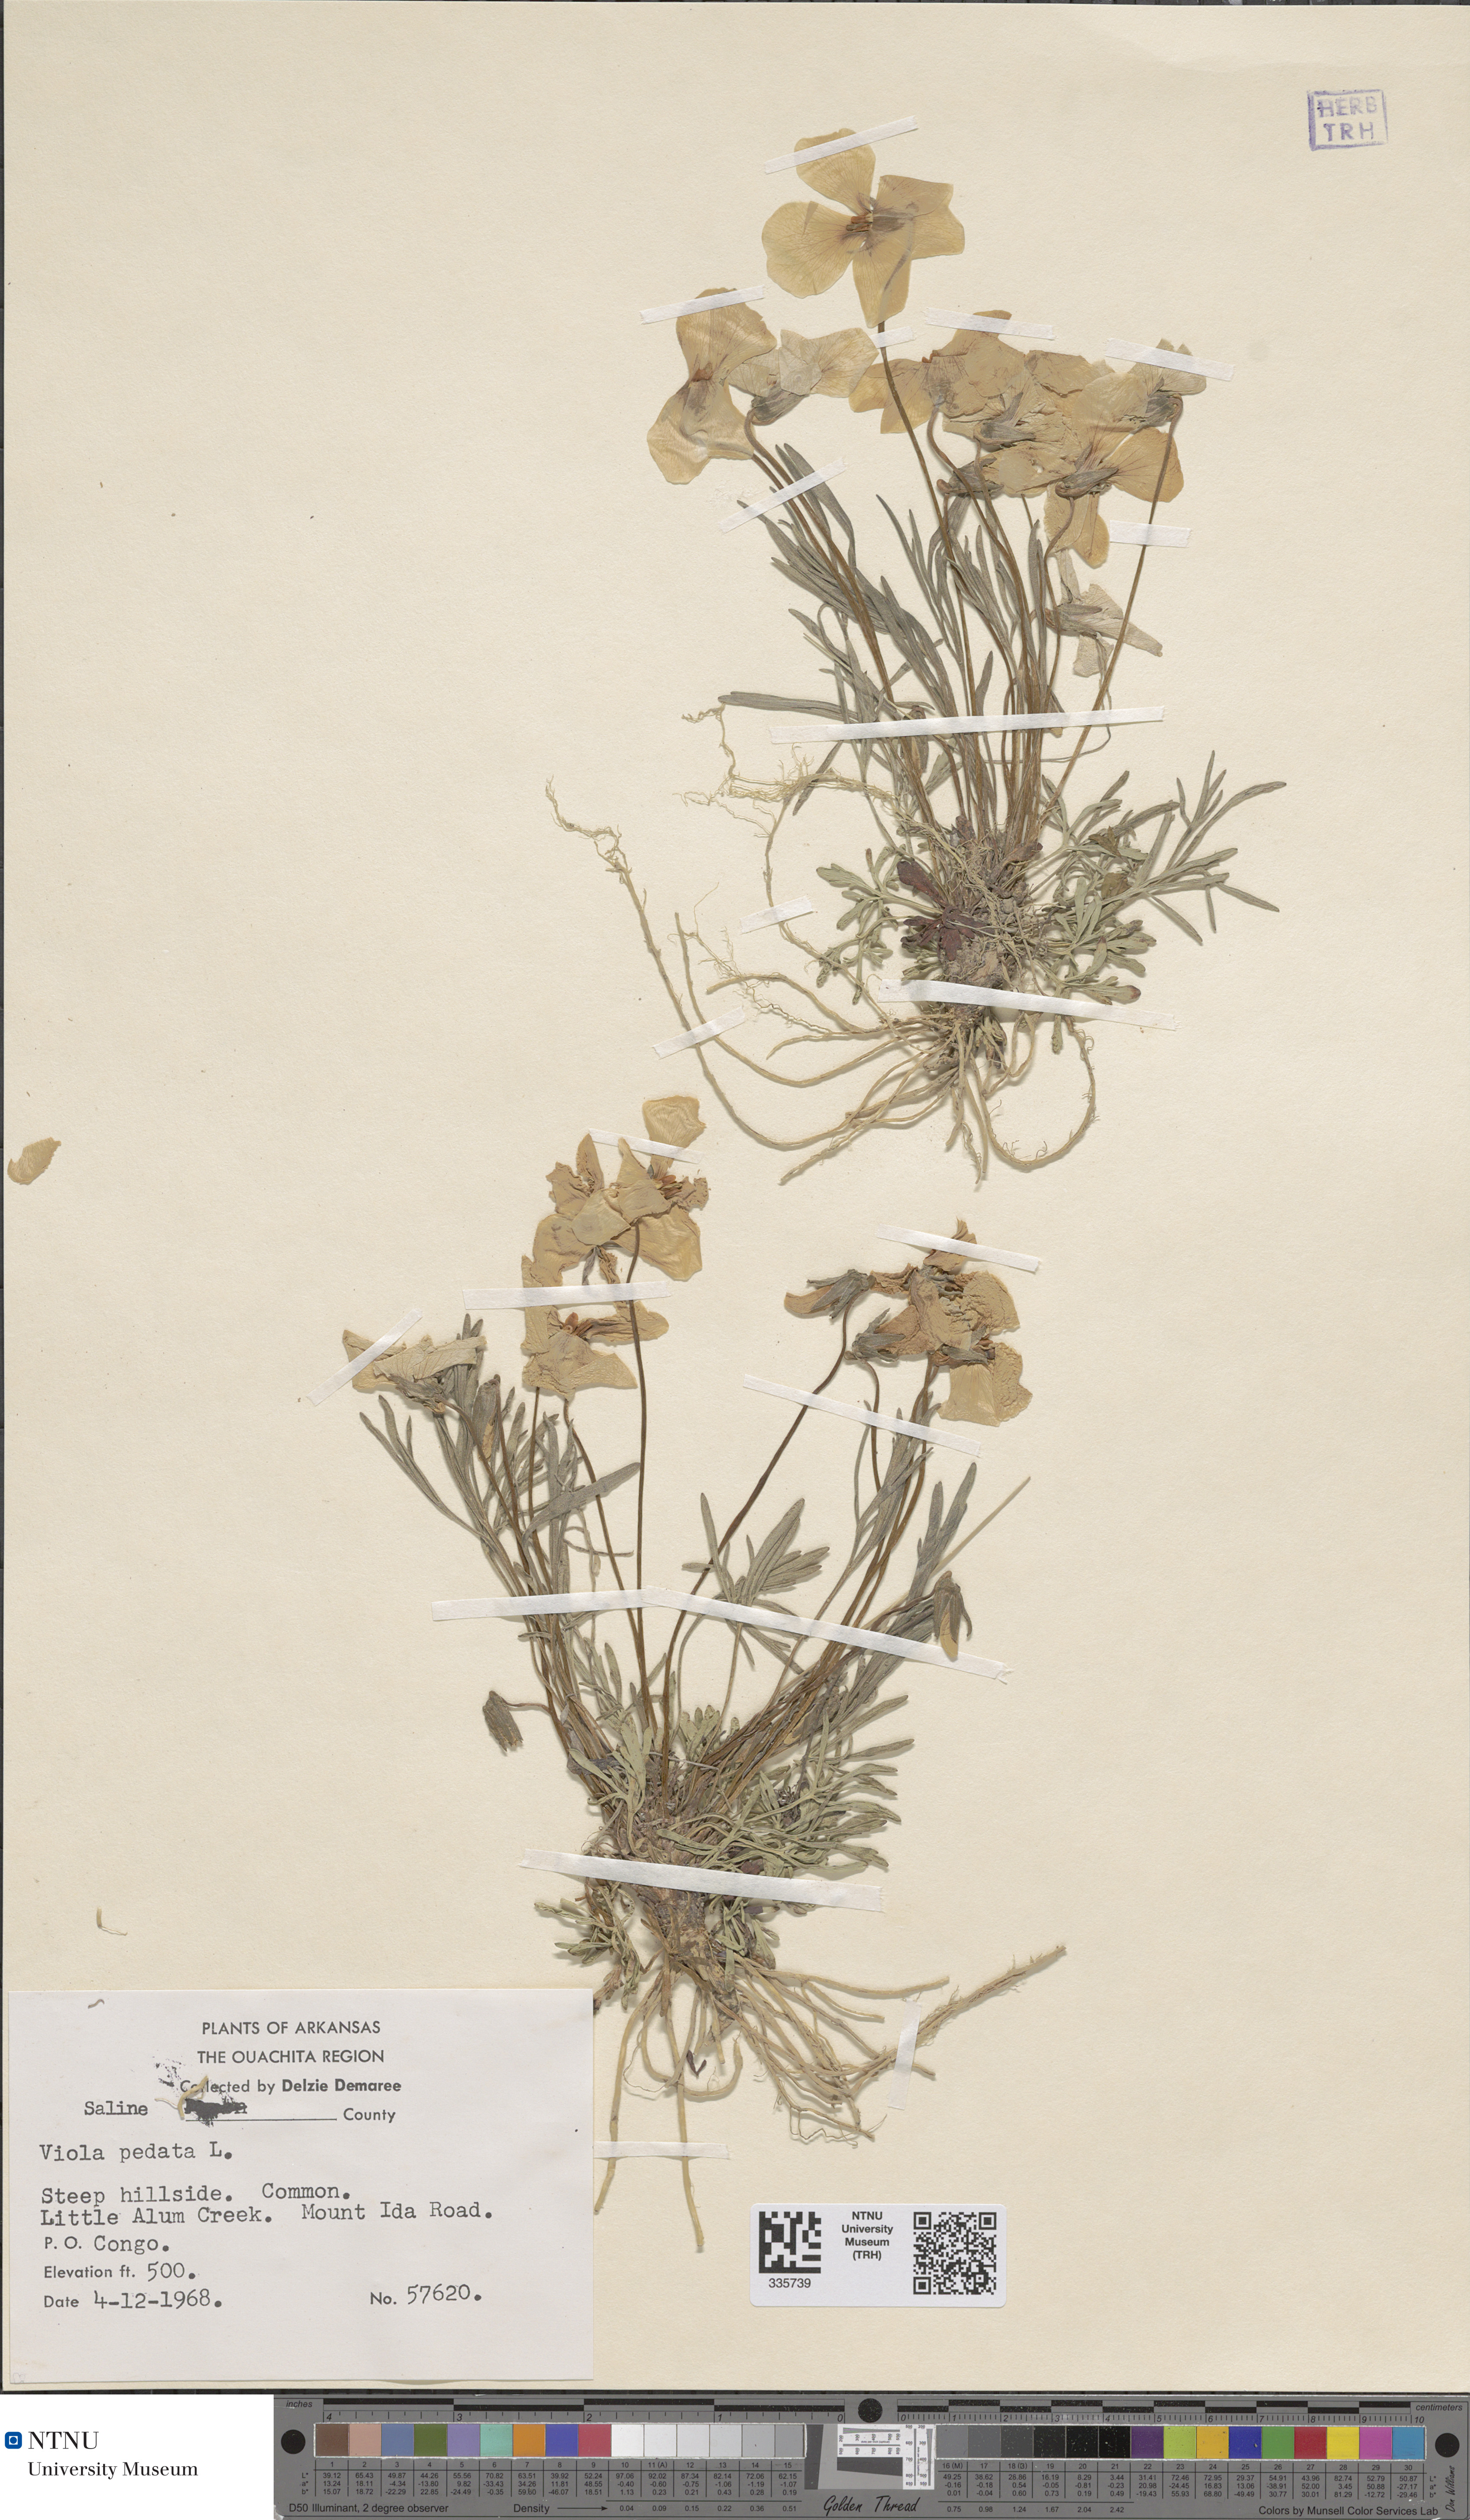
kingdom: Plantae
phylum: Tracheophyta
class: Magnoliopsida
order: Malpighiales
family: Violaceae
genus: Viola
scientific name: Viola pedata
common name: Pansy violet
